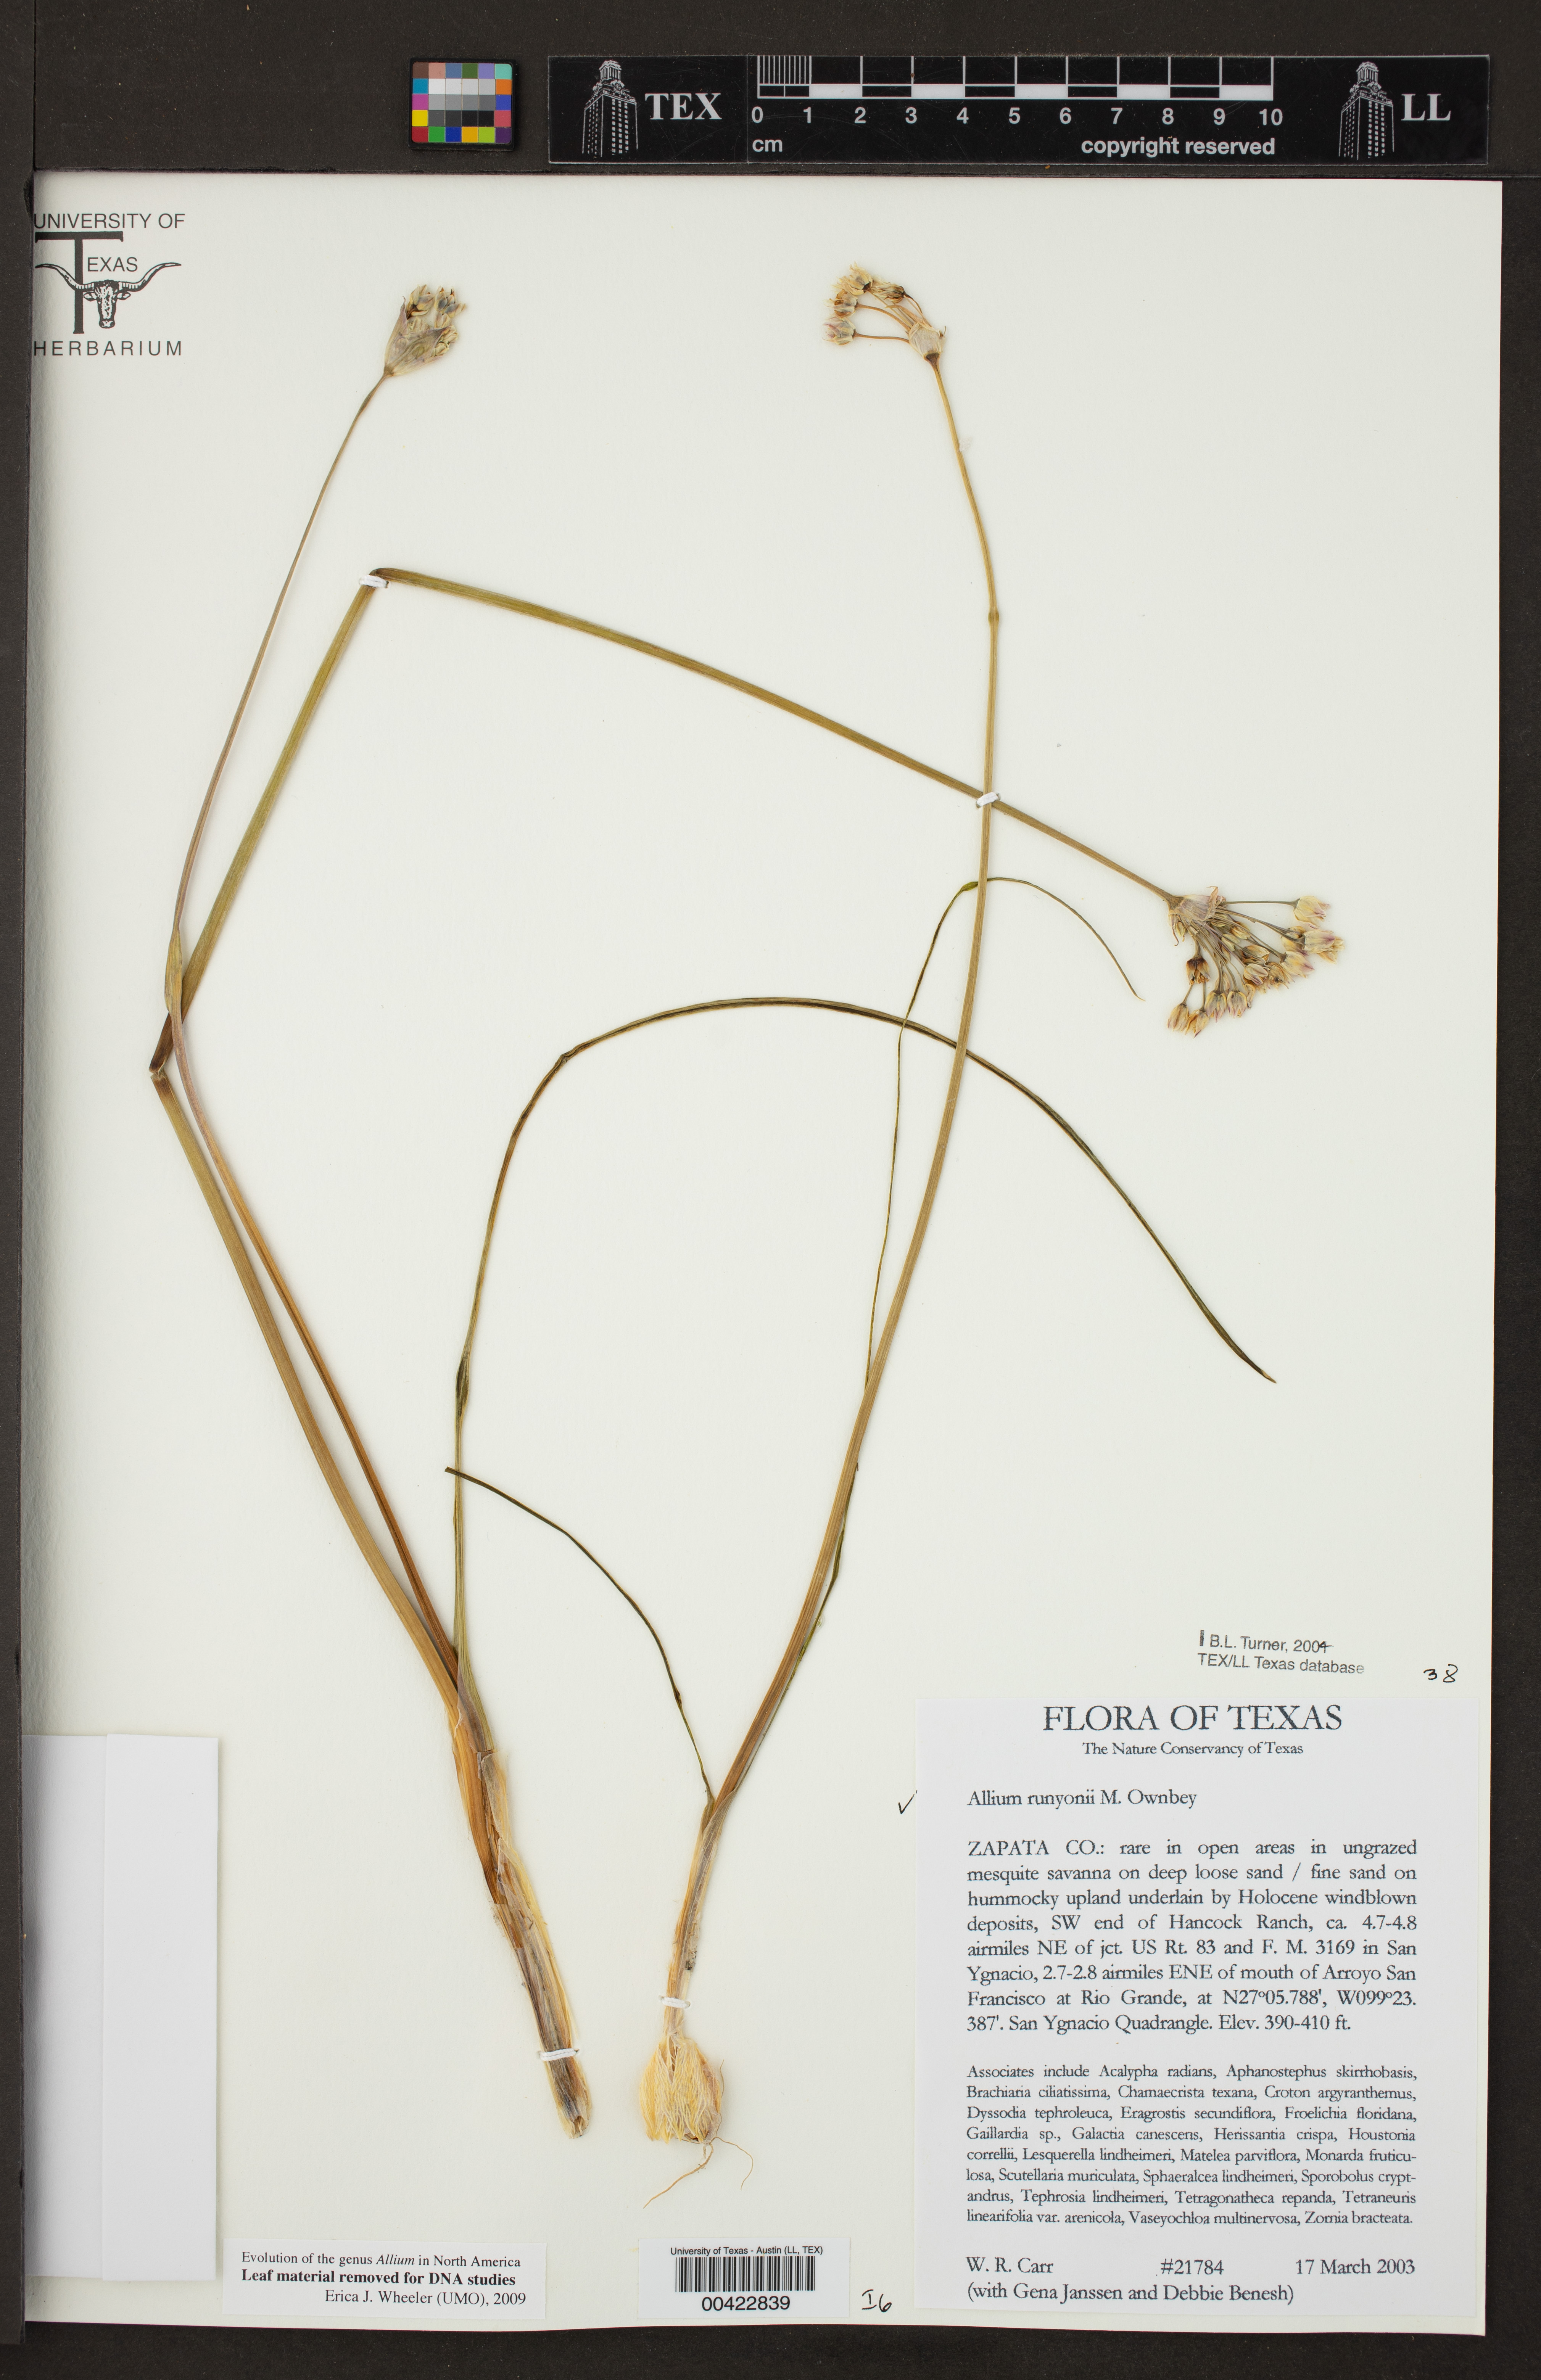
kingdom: Plantae
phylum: Tracheophyta
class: Liliopsida
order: Asparagales
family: Amaryllidaceae
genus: Allium
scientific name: Allium runyonii
